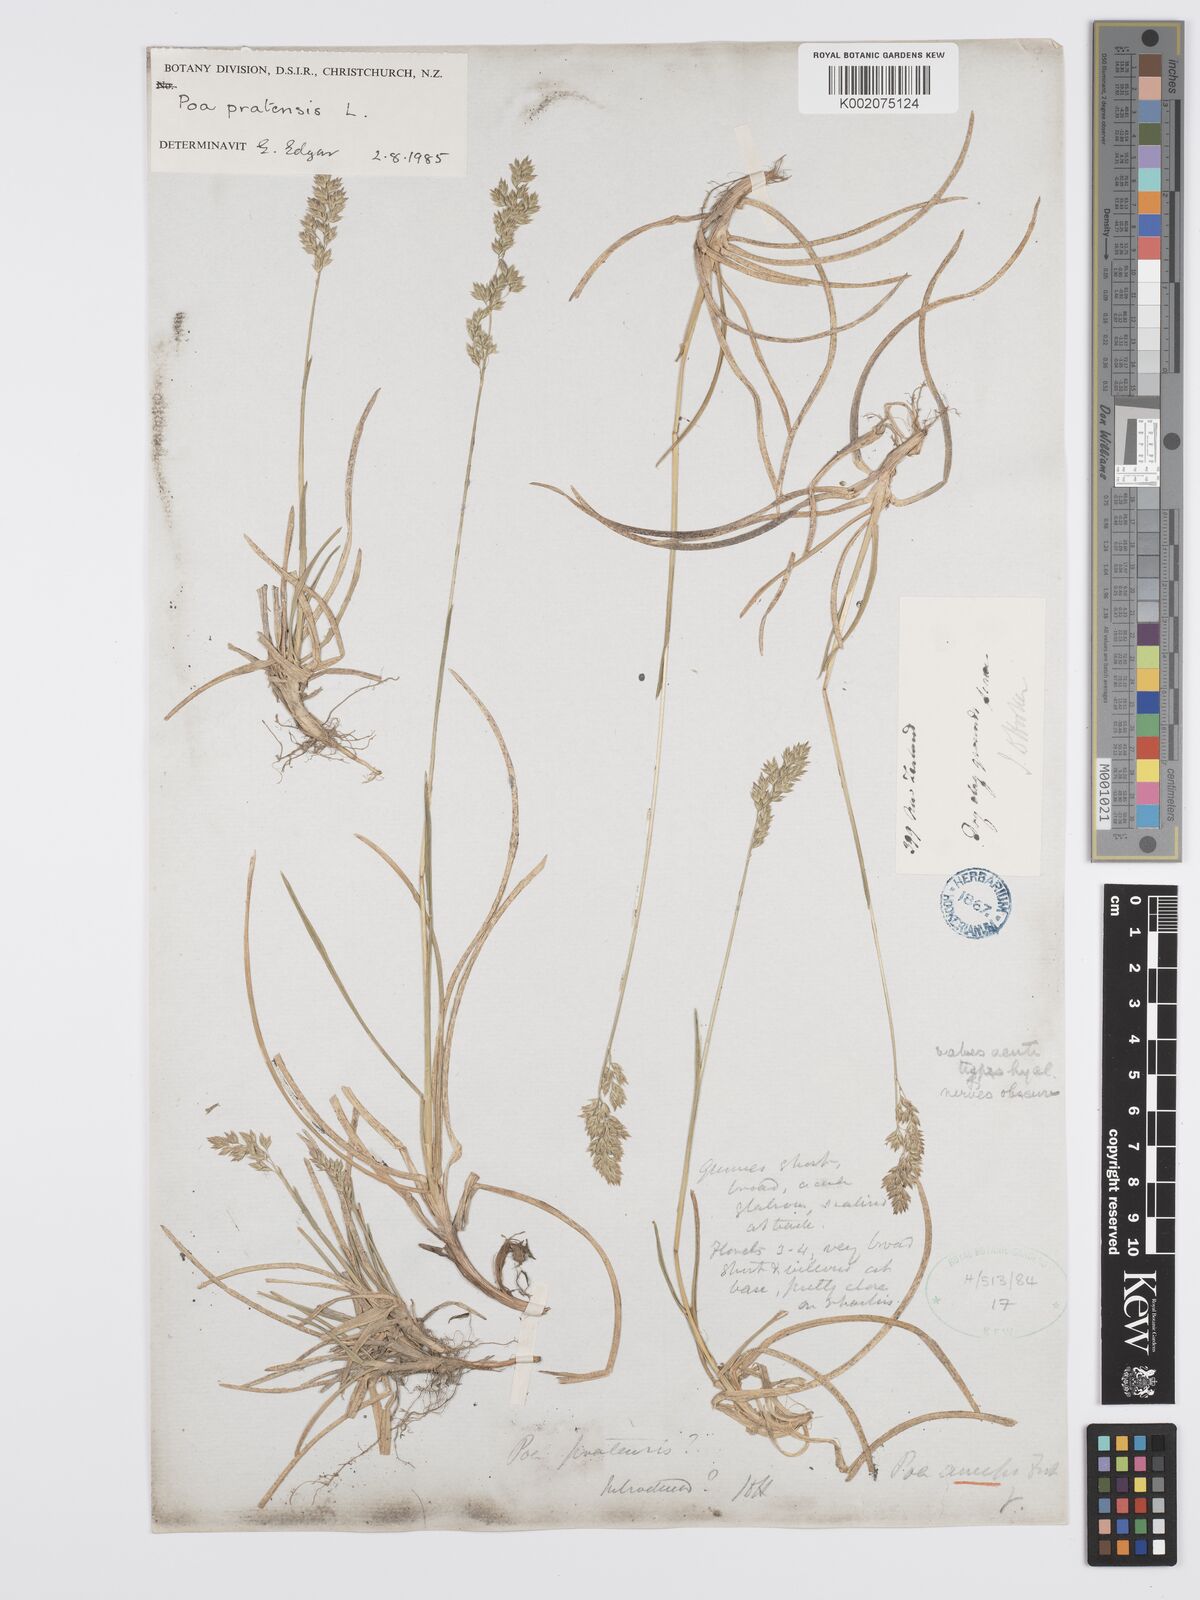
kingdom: Plantae
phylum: Tracheophyta
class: Liliopsida
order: Poales
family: Poaceae
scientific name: Poaceae
